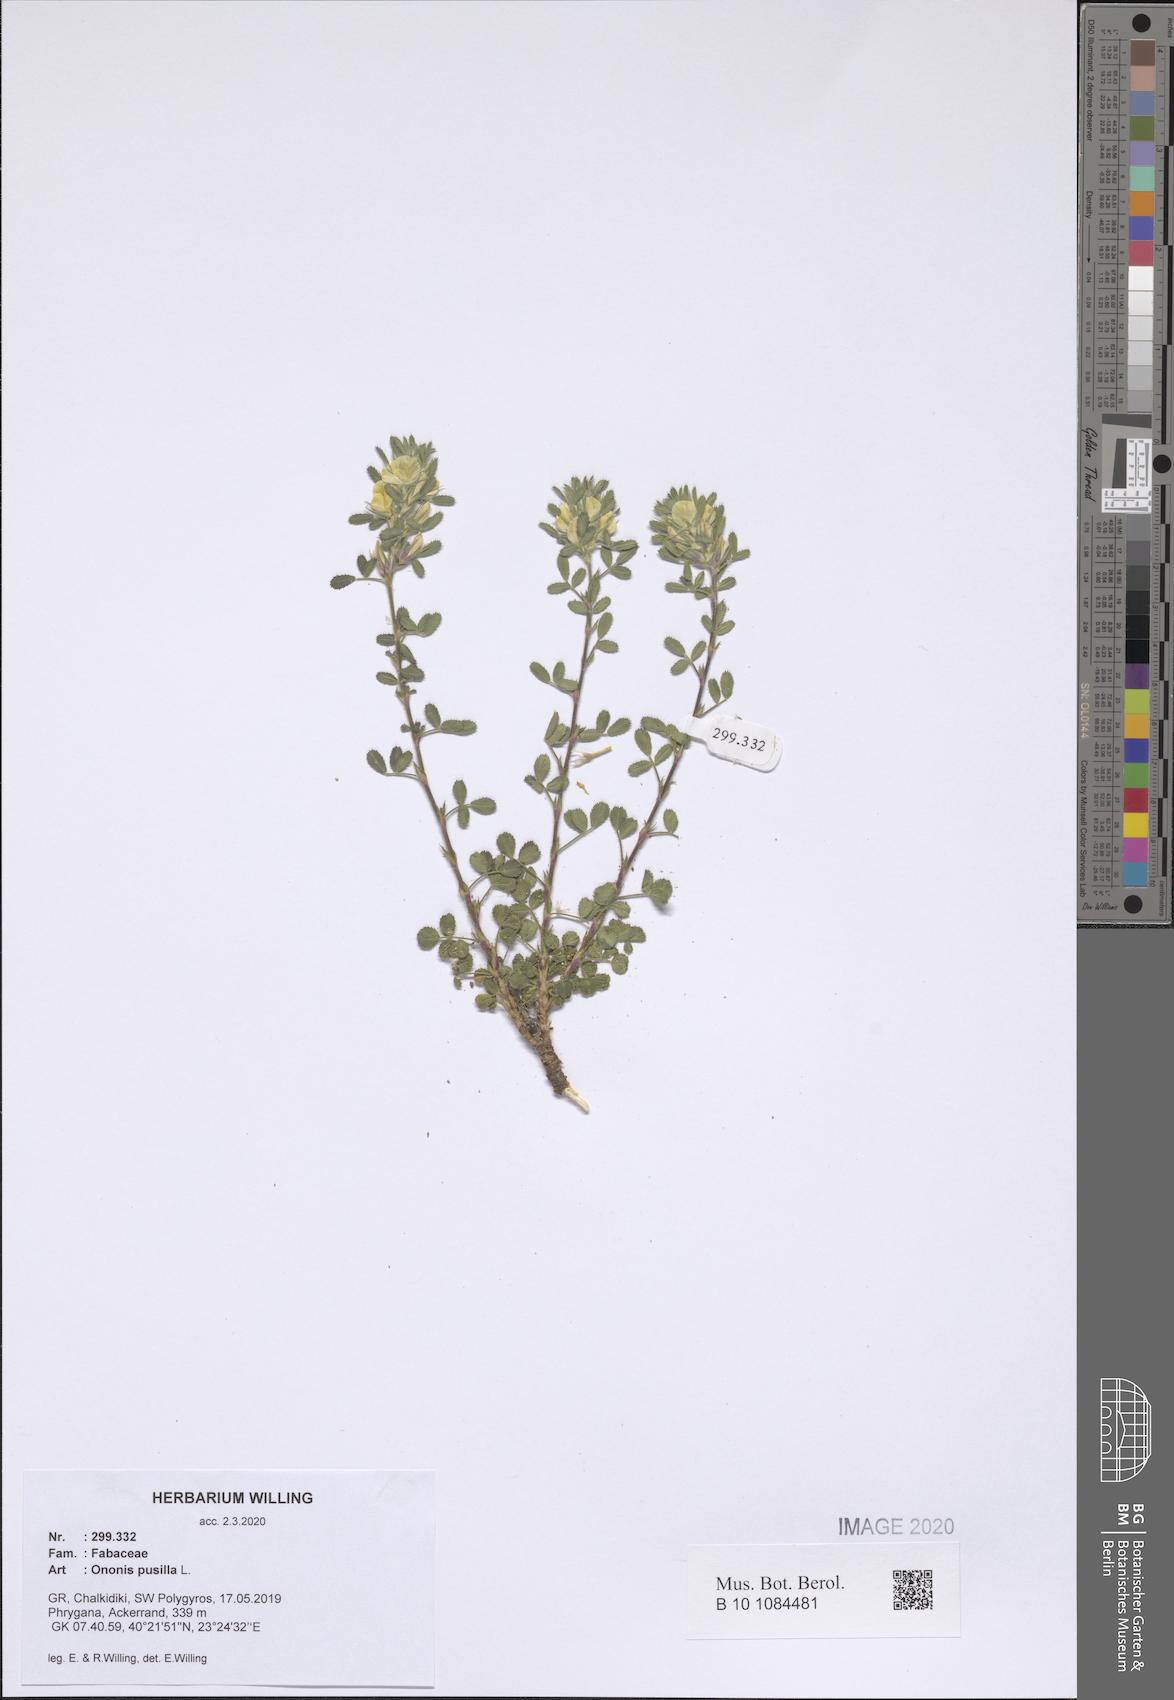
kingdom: Plantae
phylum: Tracheophyta
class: Magnoliopsida
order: Fabales
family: Fabaceae
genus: Ononis
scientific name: Ononis pusilla
